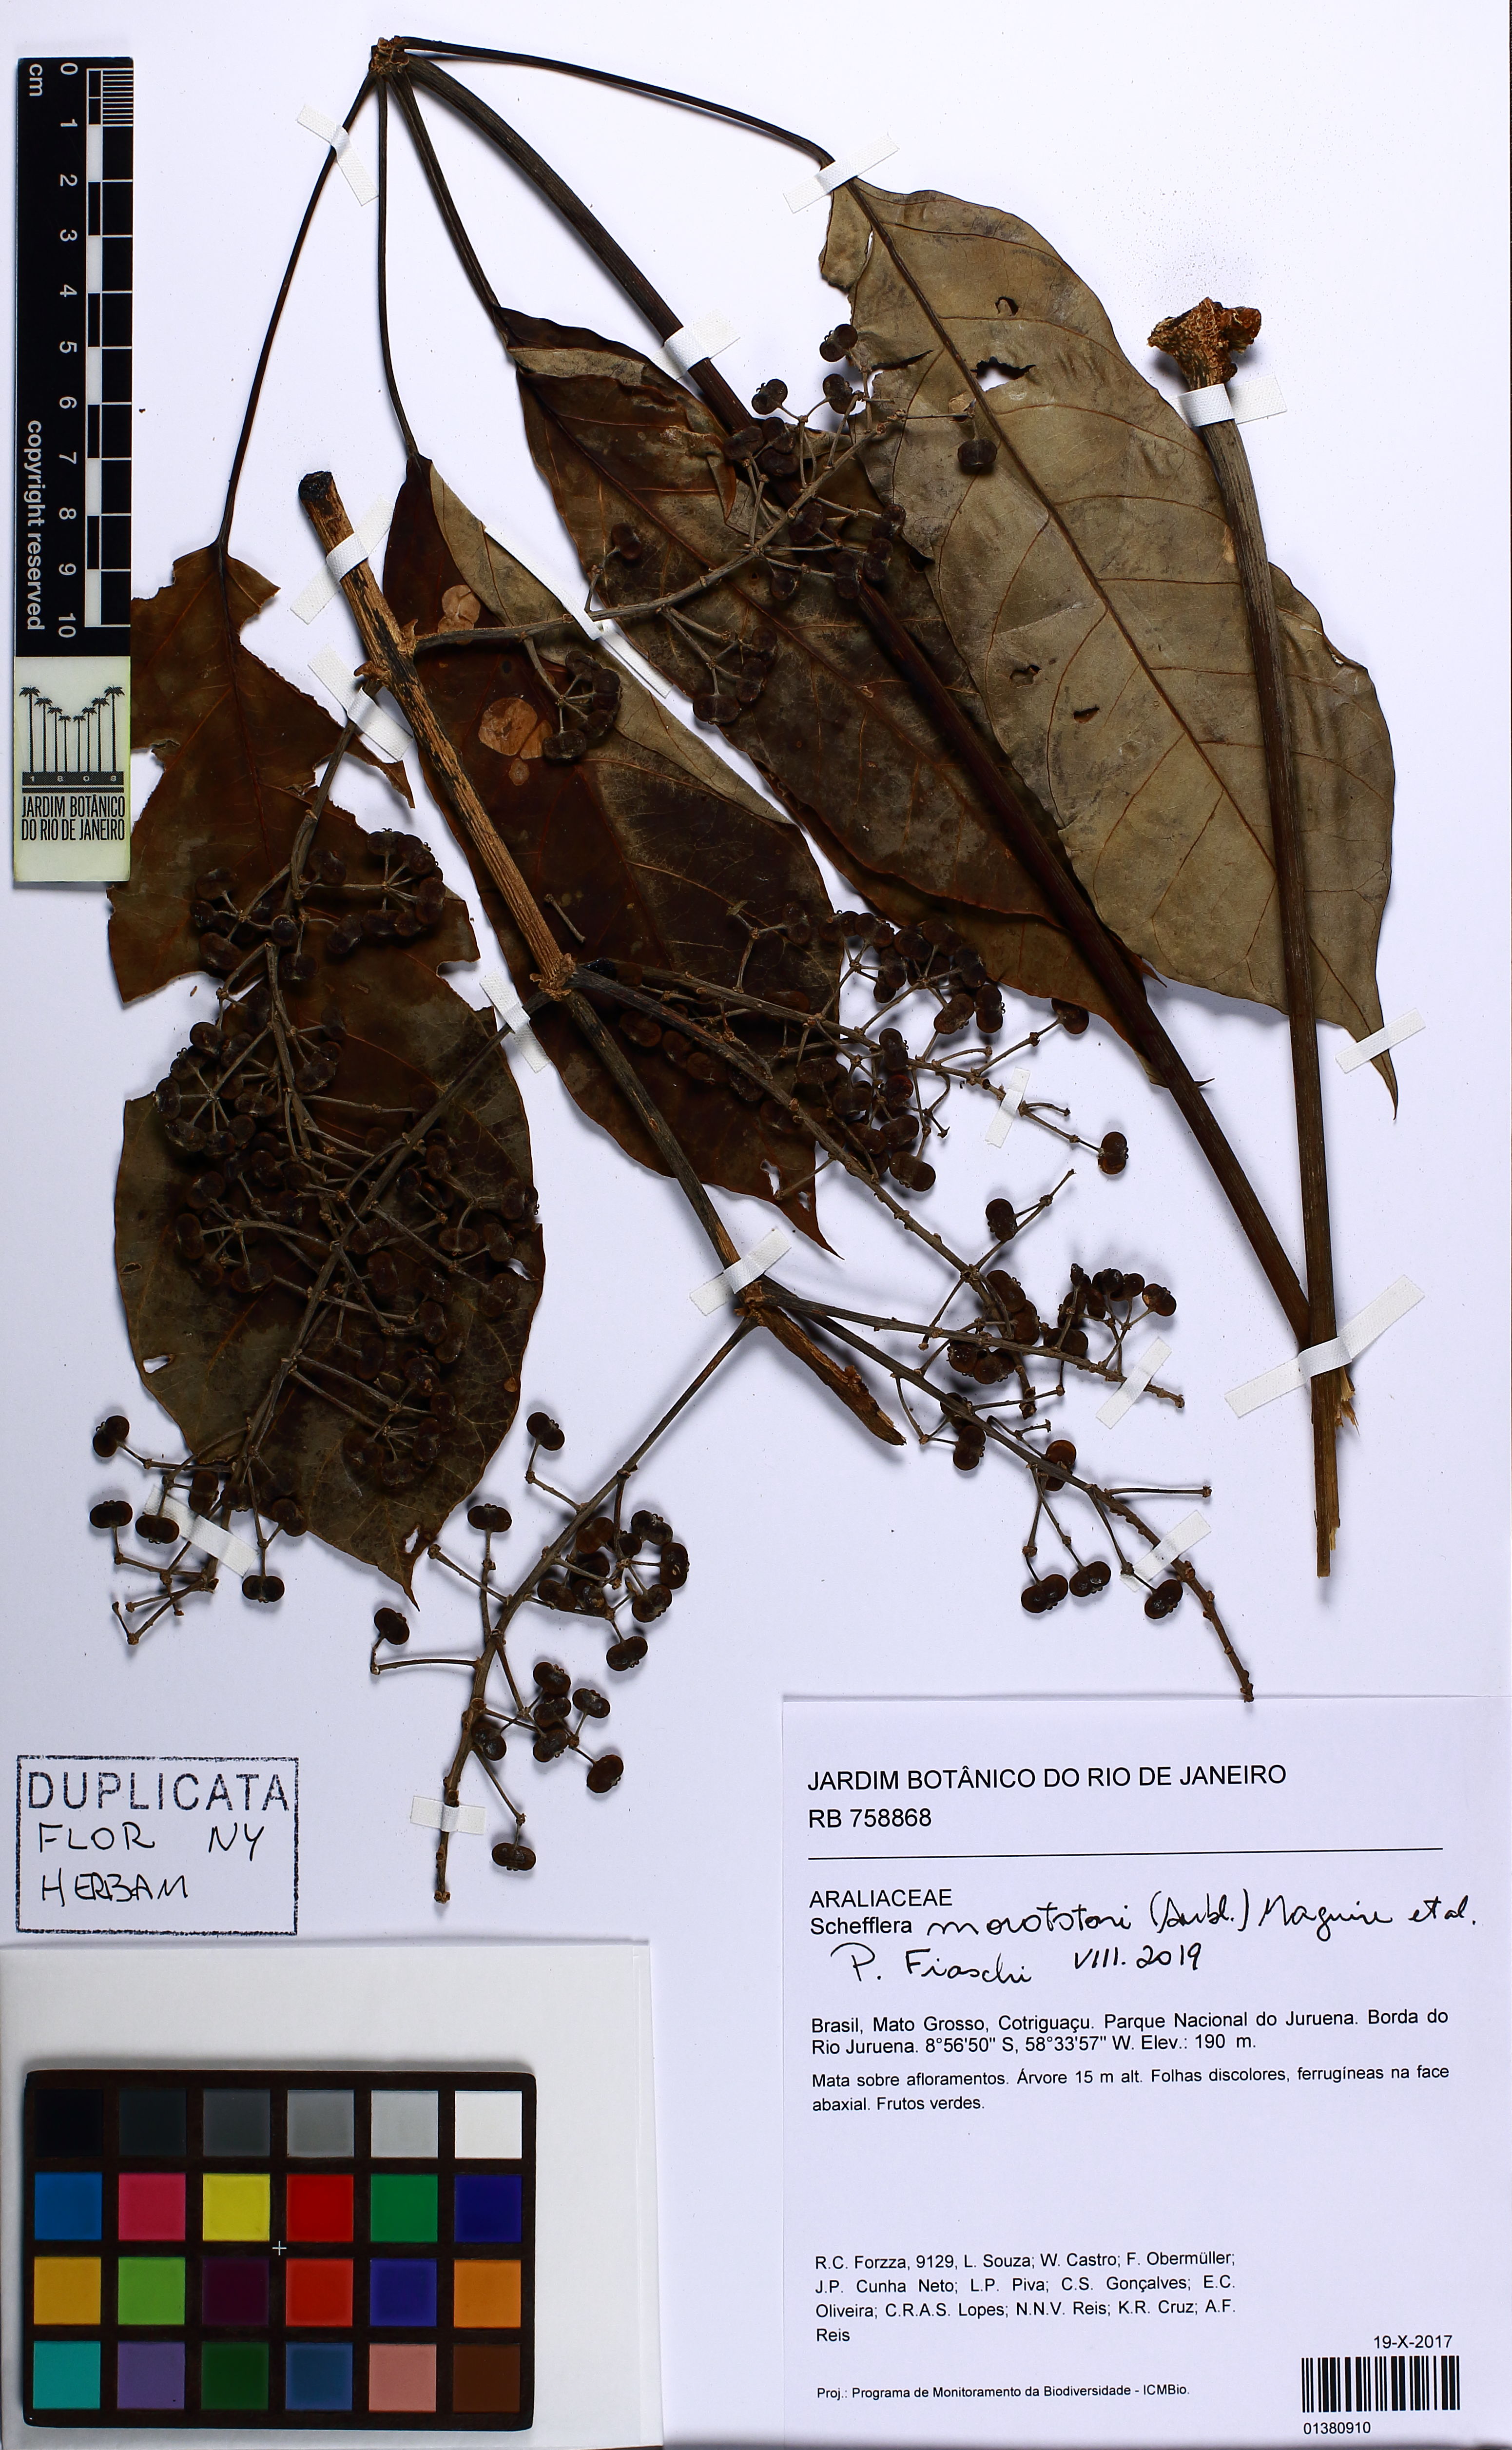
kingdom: Plantae
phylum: Tracheophyta
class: Magnoliopsida
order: Apiales
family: Araliaceae
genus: Didymopanax
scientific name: Didymopanax morototoni
